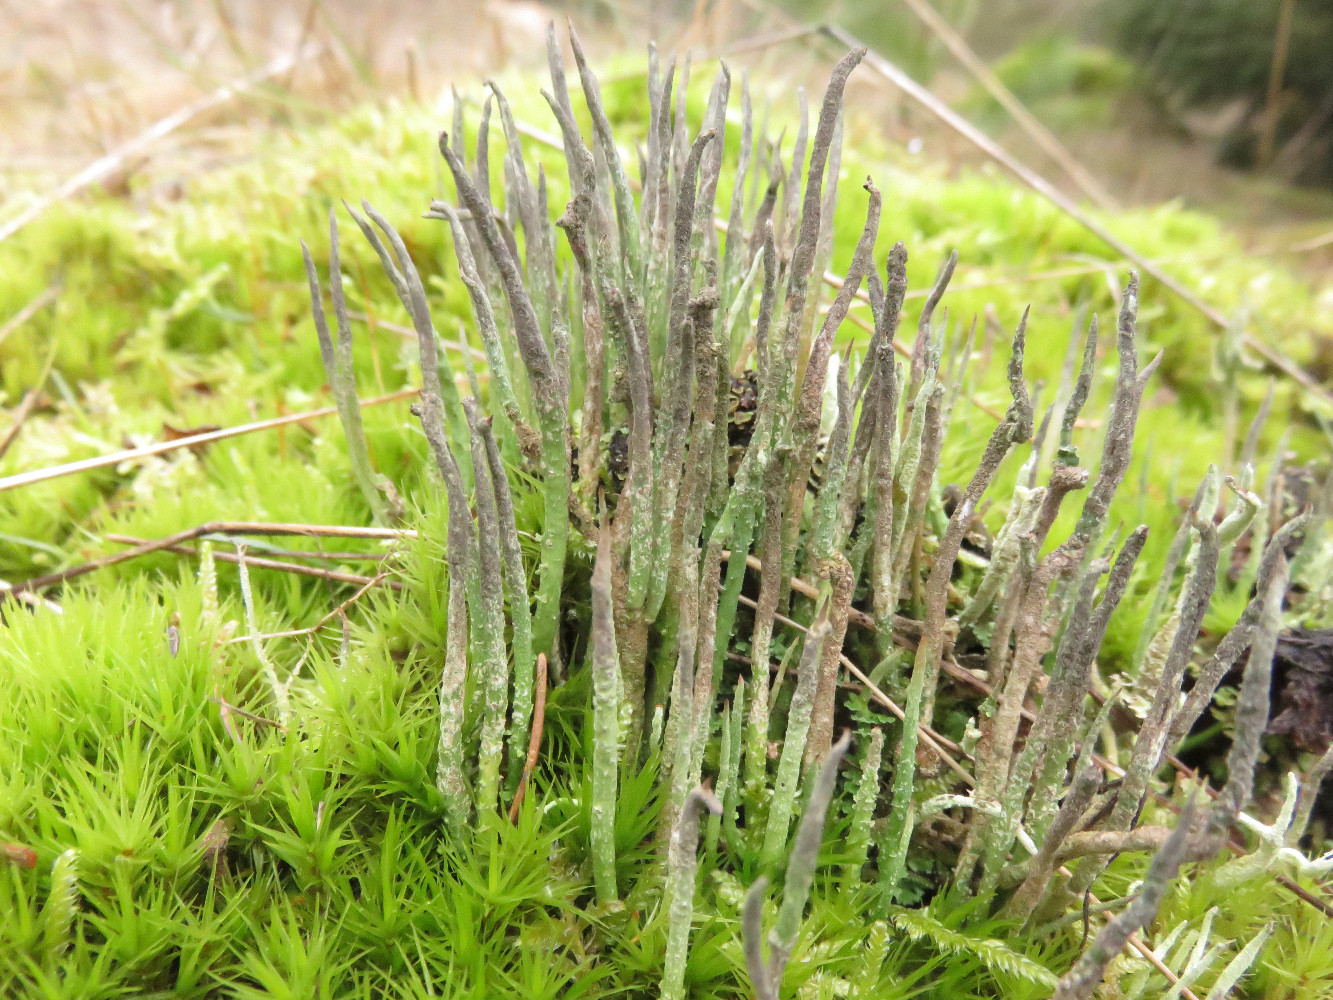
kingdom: Fungi
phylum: Ascomycota
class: Lecanoromycetes
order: Lecanorales
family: Cladoniaceae
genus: Cladonia
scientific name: Cladonia cornuta
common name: syl-bægerlav
